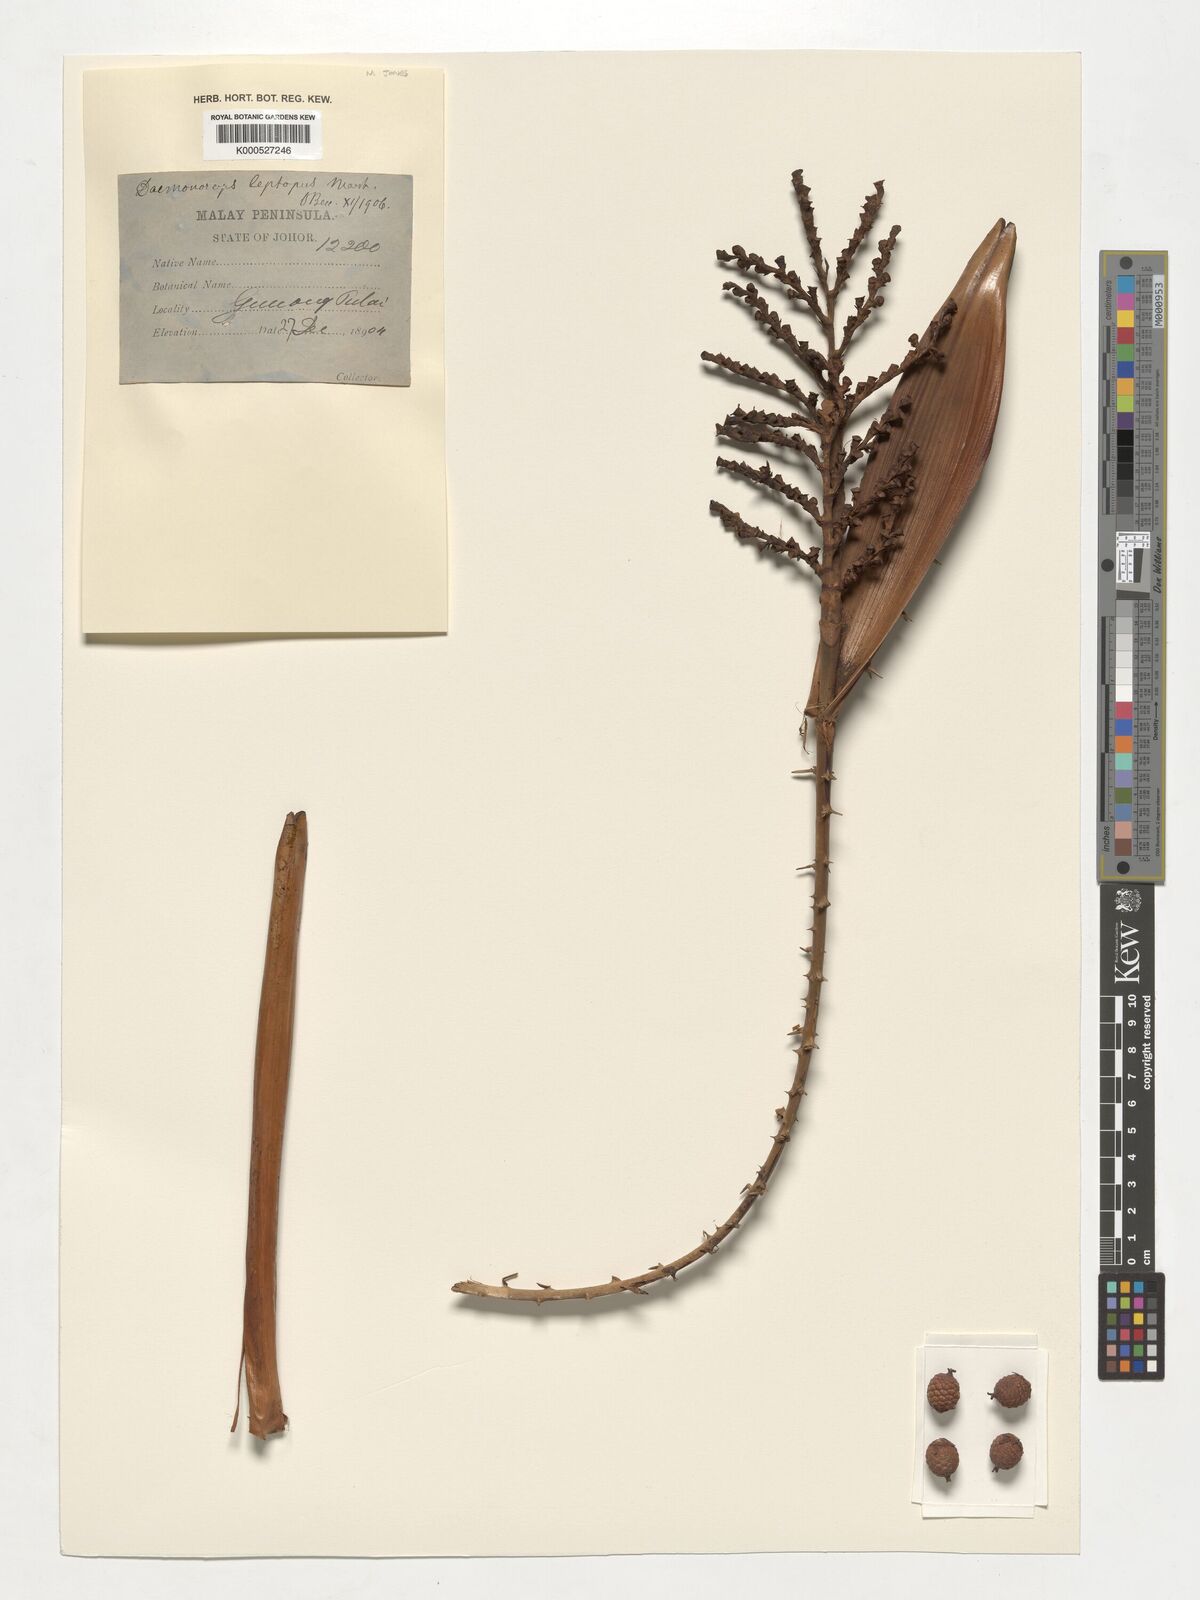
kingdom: Plantae
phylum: Tracheophyta
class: Liliopsida
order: Arecales
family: Arecaceae
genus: Calamus
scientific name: Calamus leptopus
